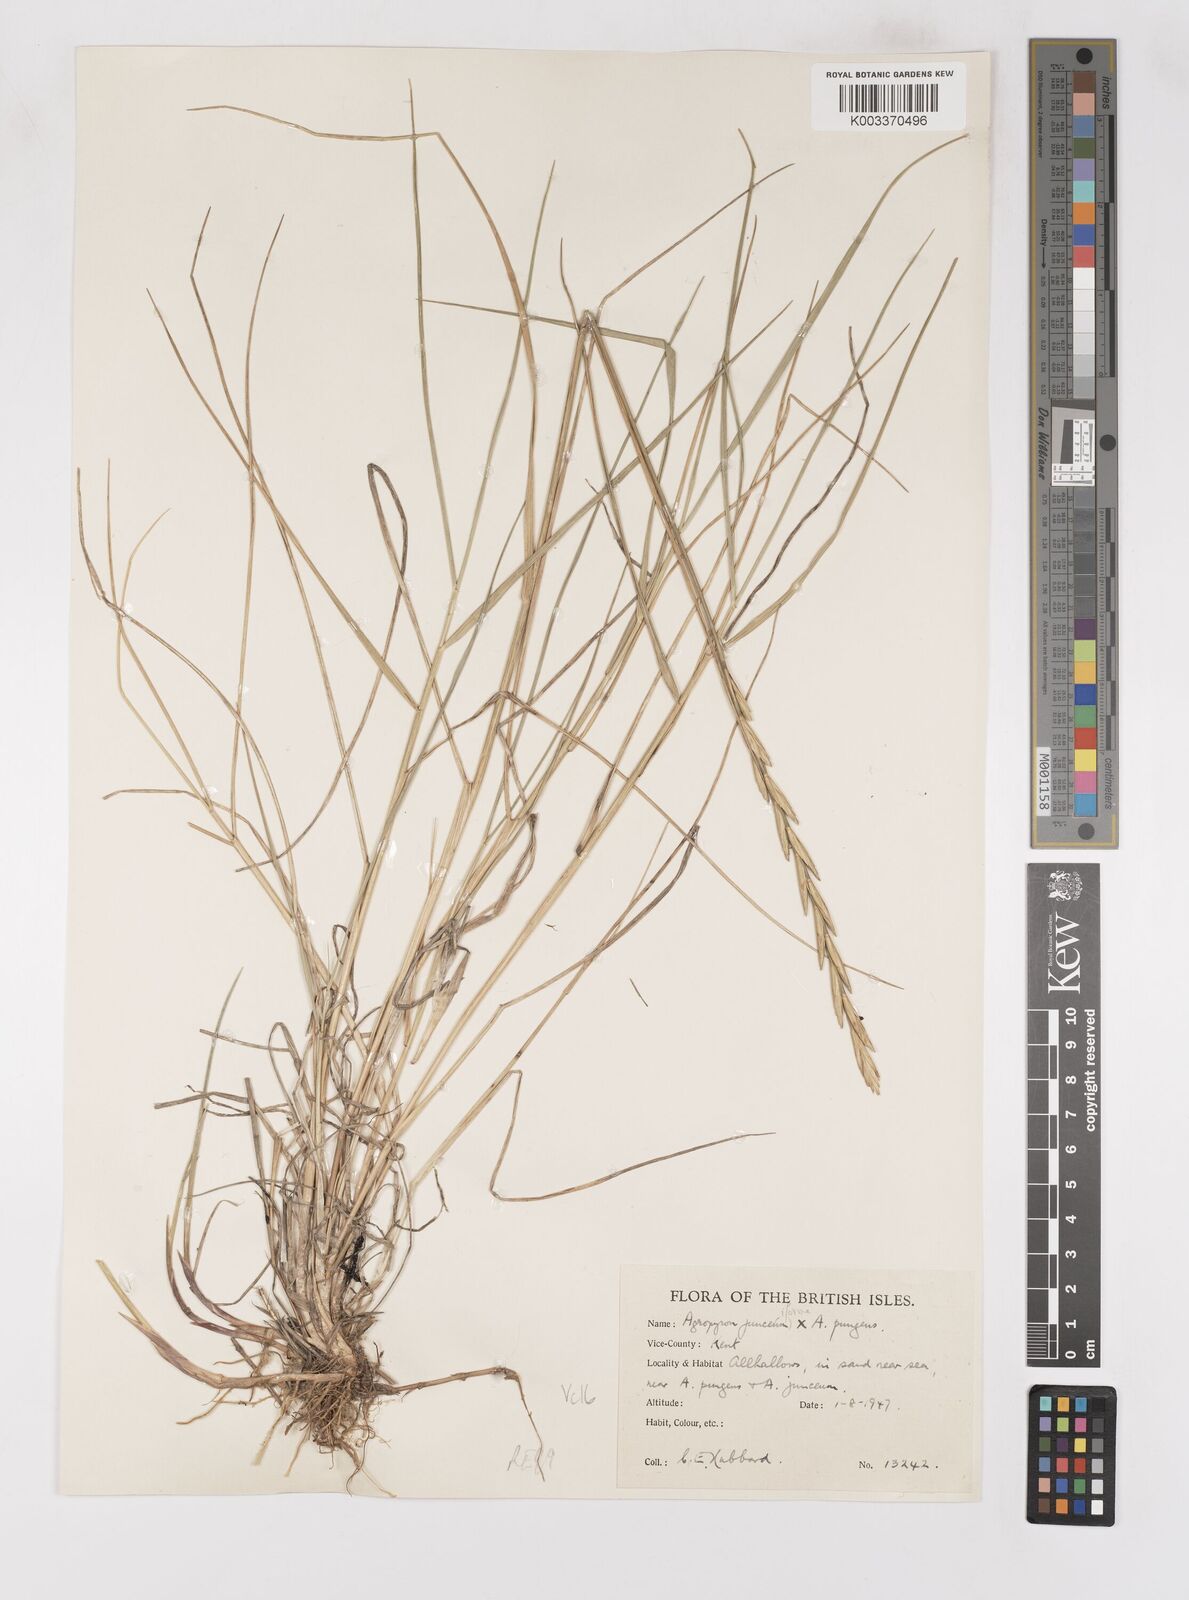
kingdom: Plantae
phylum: Tracheophyta
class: Liliopsida
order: Poales
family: Poaceae
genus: Thinoelymus
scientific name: Thinoelymus obtusiusculus
